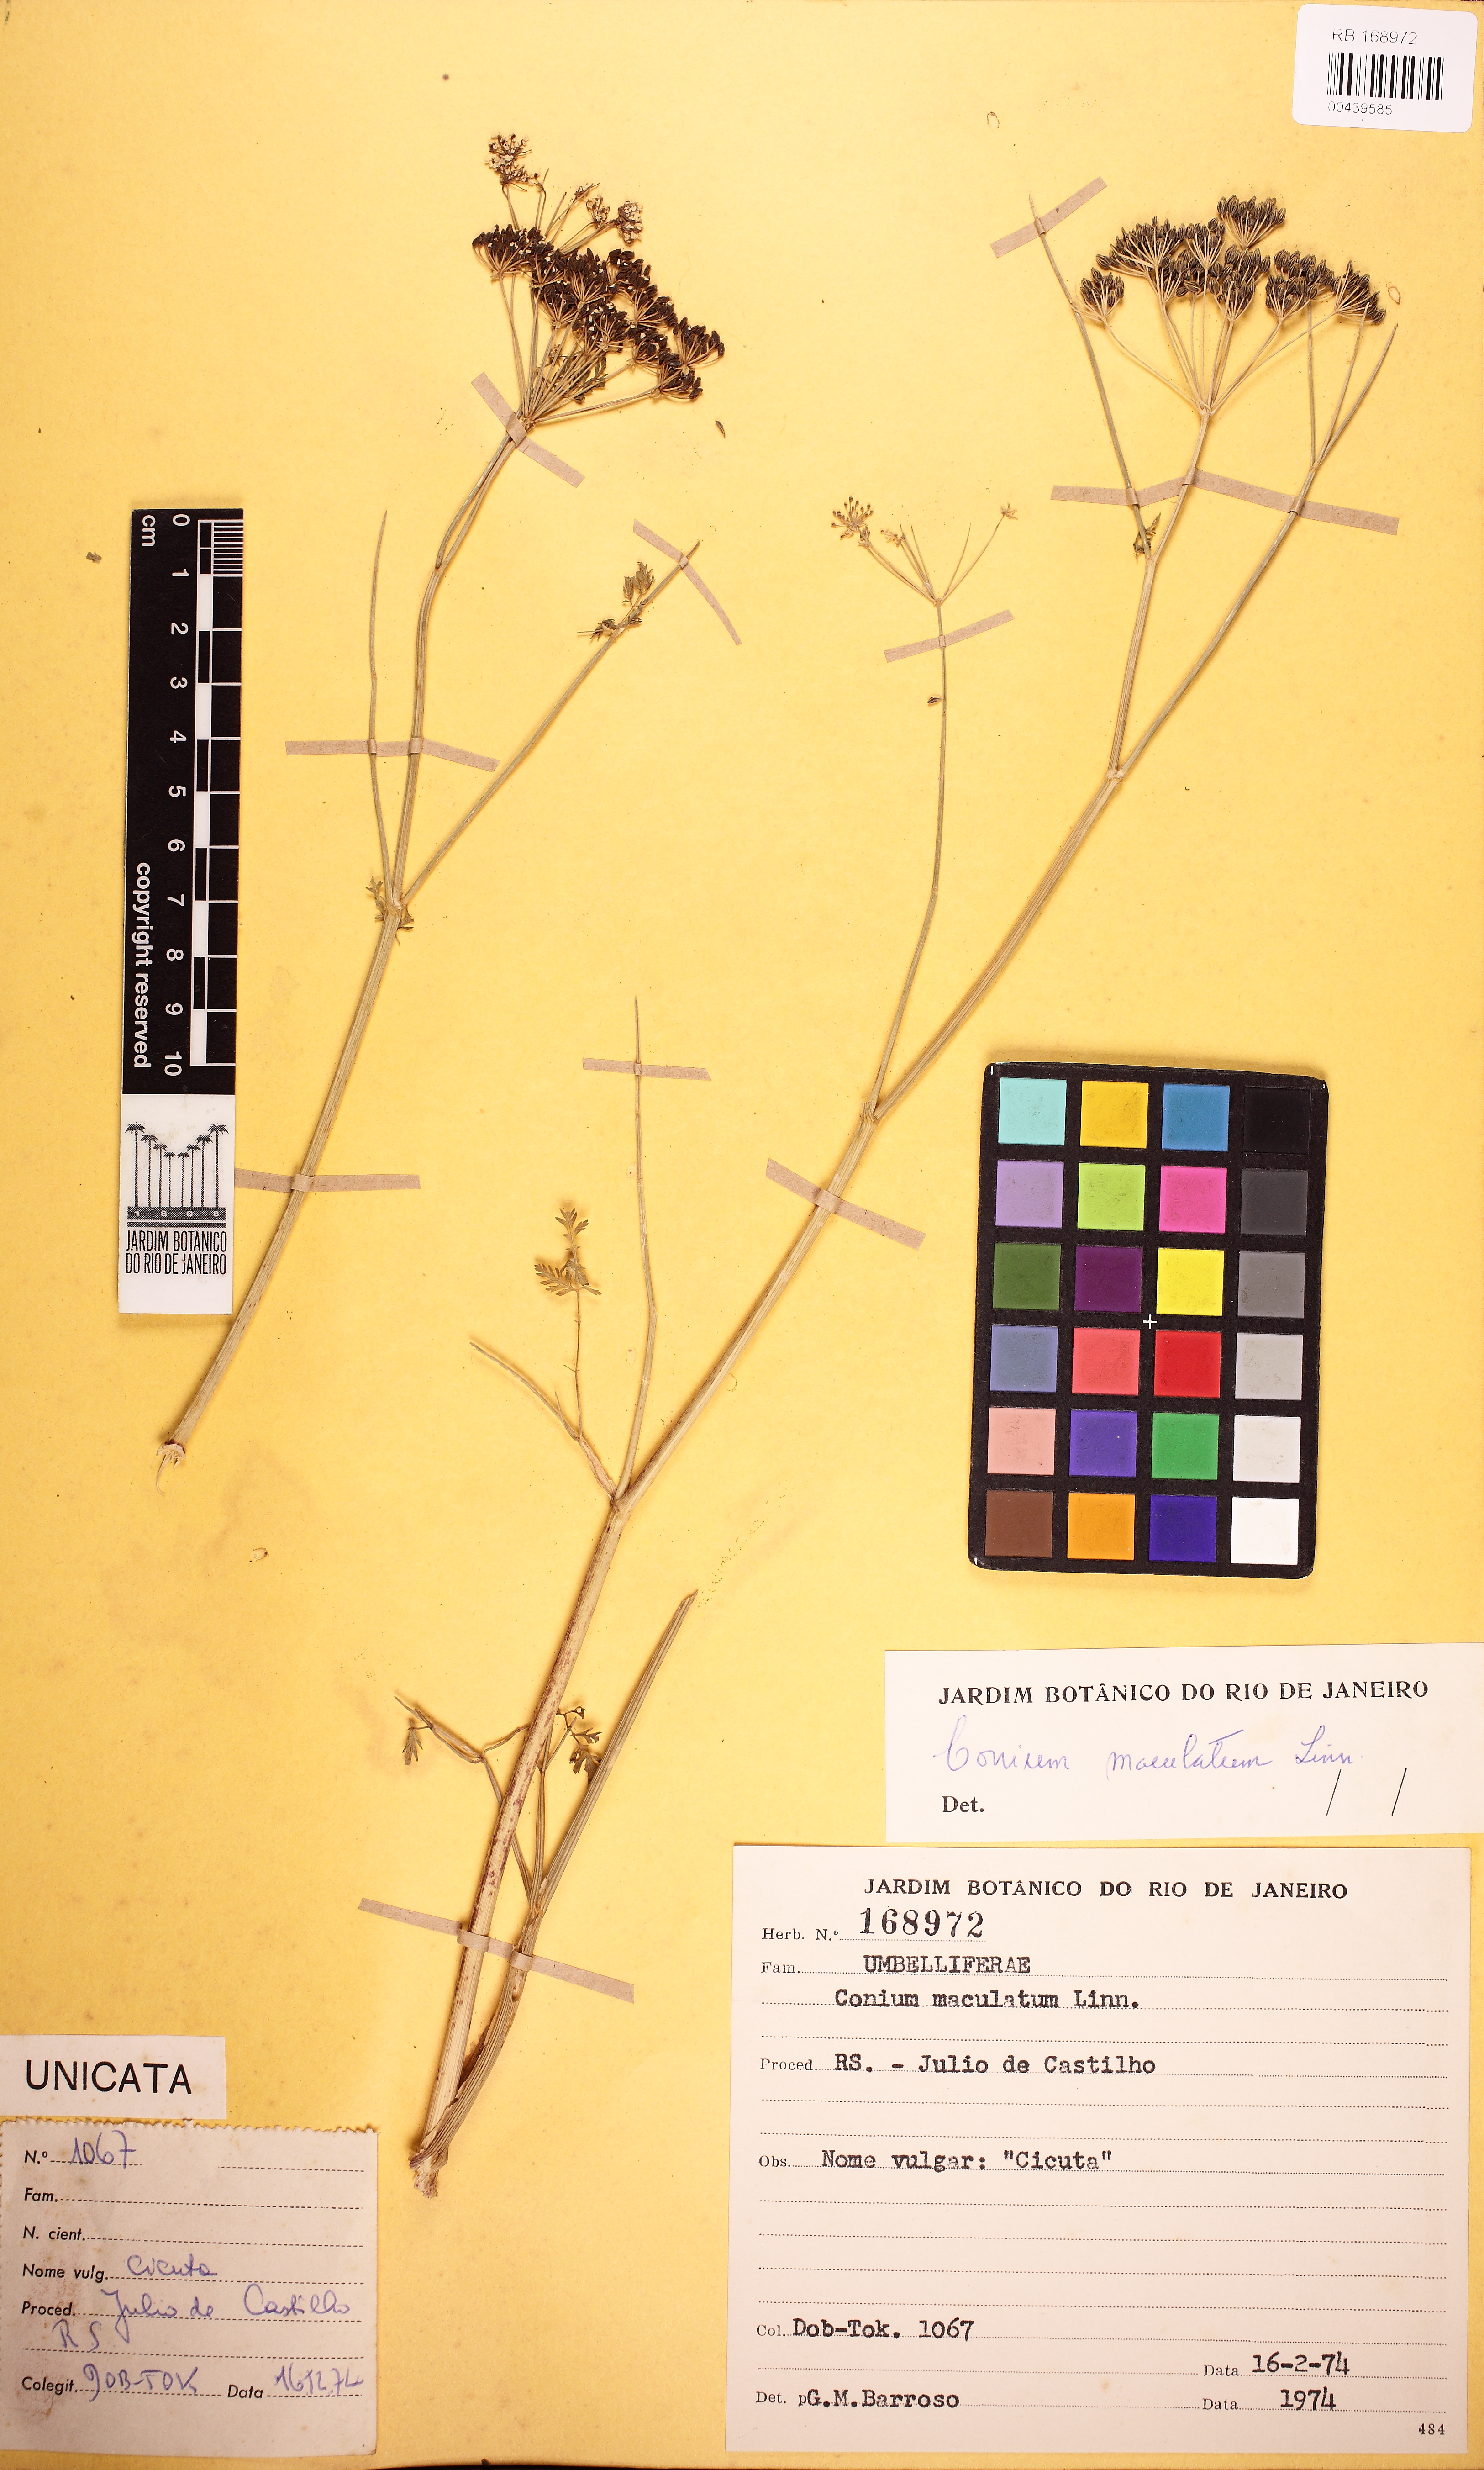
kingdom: Plantae
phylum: Tracheophyta
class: Magnoliopsida
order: Apiales
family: Apiaceae
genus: Conium
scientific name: Conium maculatum
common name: Hemlock
